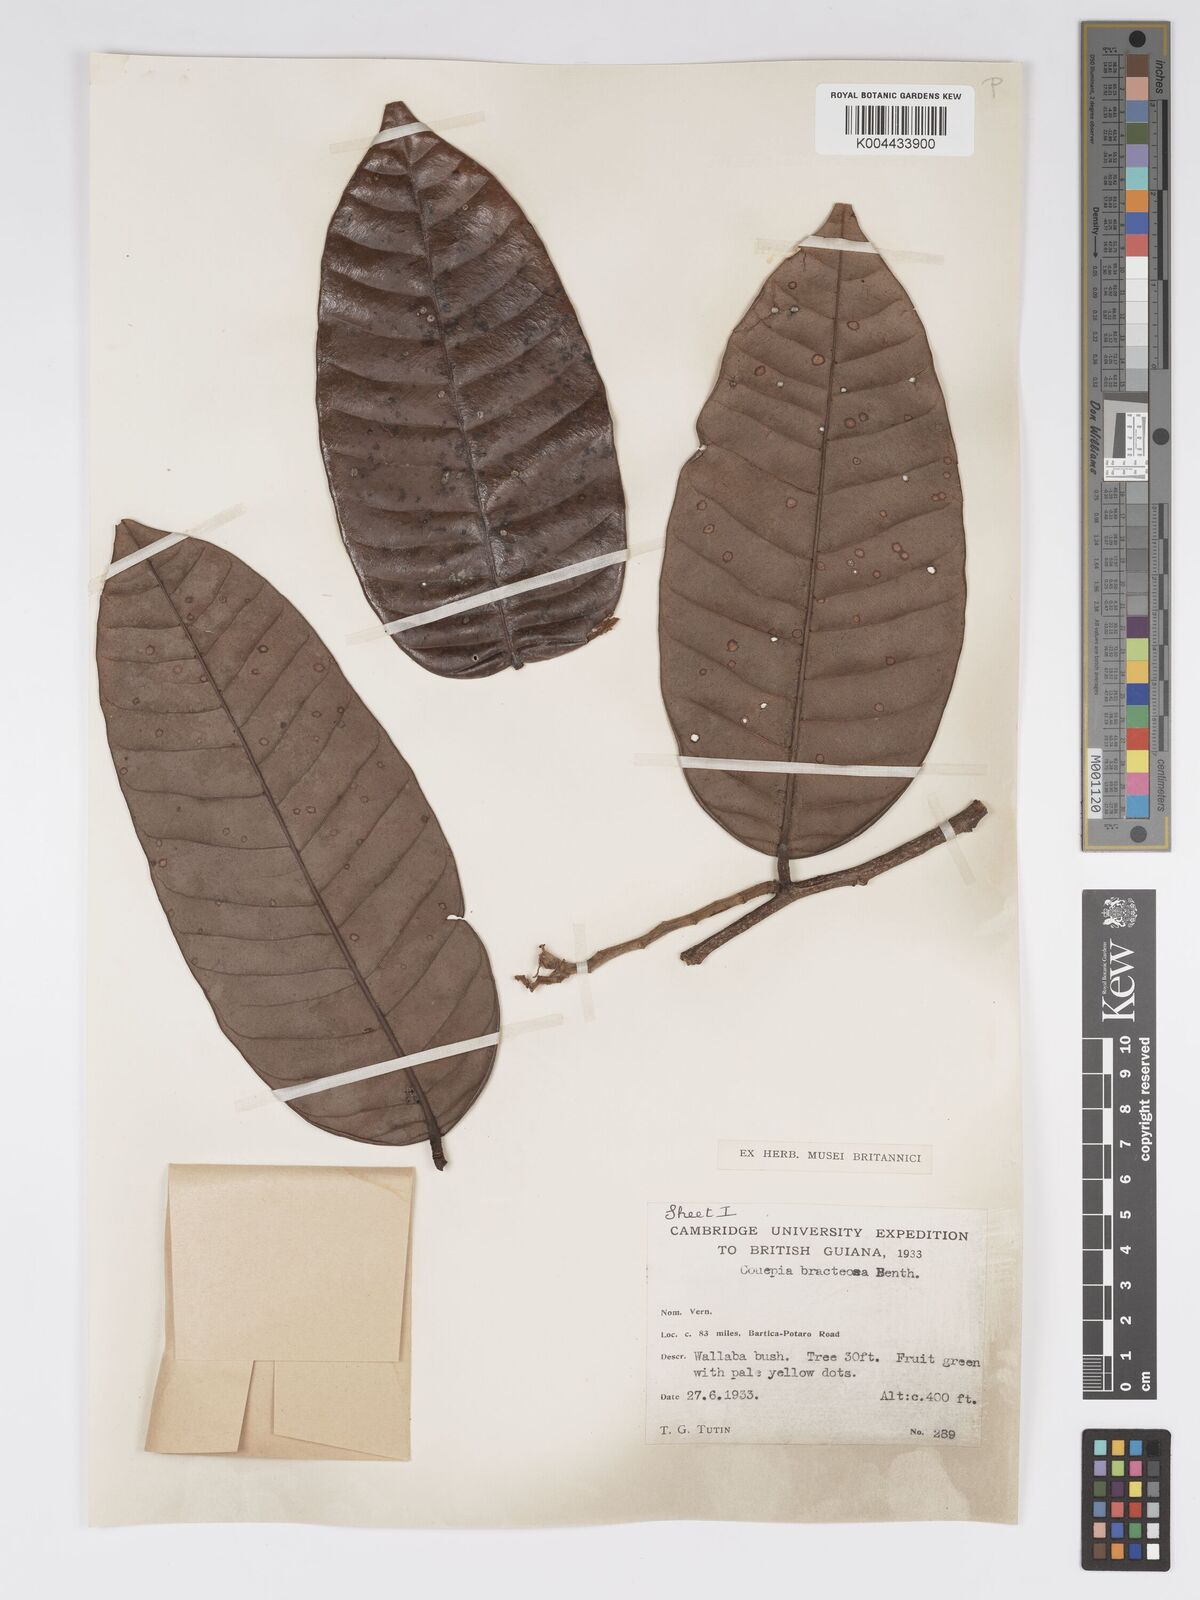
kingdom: Plantae
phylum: Tracheophyta
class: Magnoliopsida
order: Malpighiales
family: Chrysobalanaceae
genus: Couepia
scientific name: Couepia bracteosa
